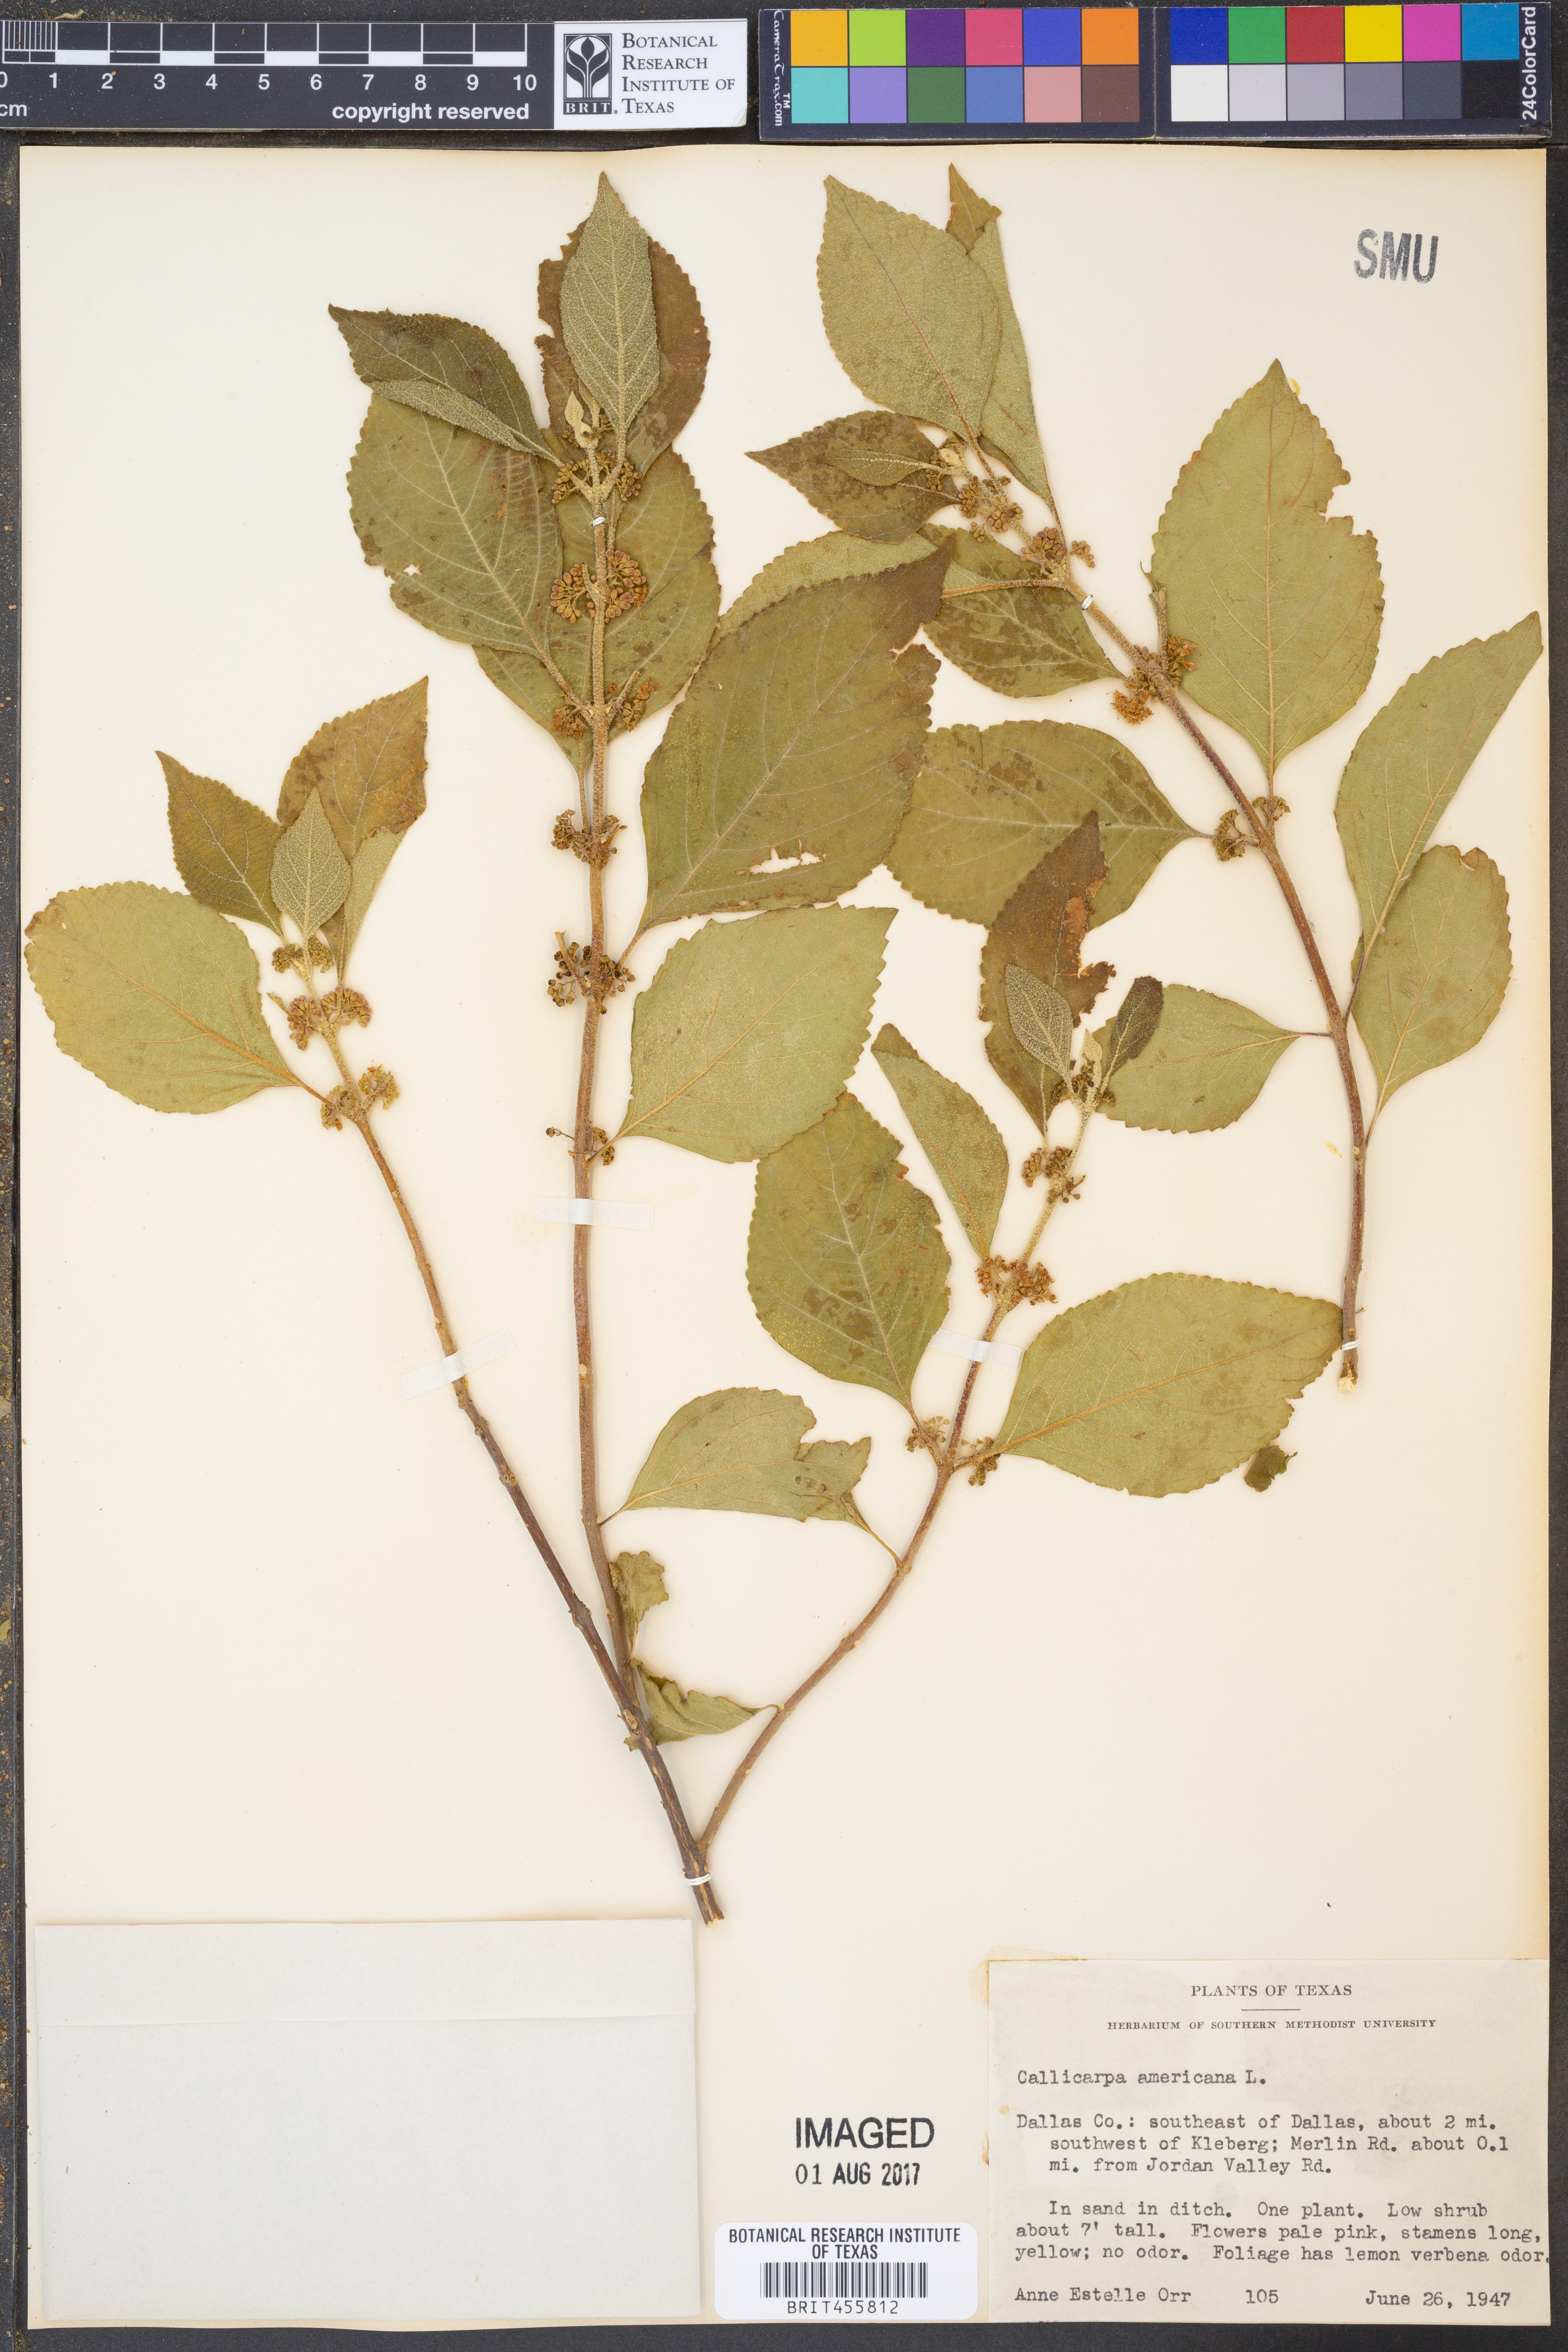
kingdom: Plantae
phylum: Tracheophyta
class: Magnoliopsida
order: Lamiales
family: Lamiaceae
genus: Callicarpa
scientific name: Callicarpa americana
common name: American beautyberry
